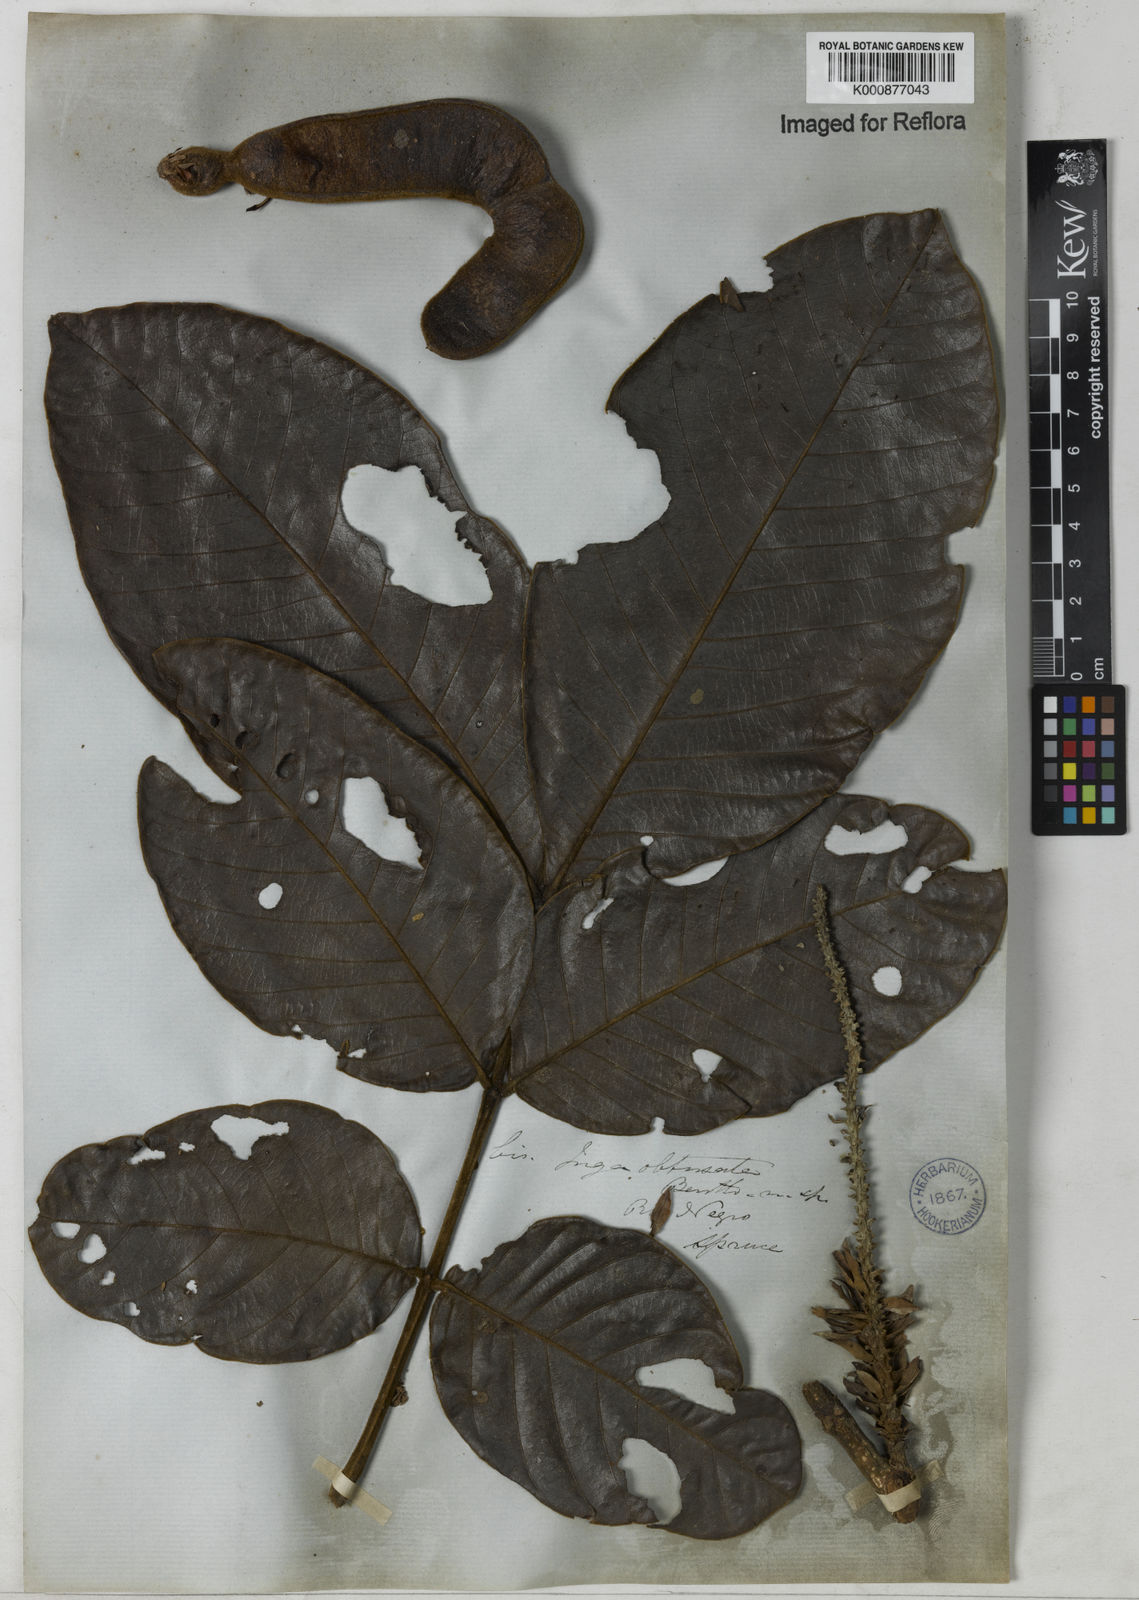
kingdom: Plantae
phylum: Tracheophyta
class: Magnoliopsida
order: Fabales
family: Fabaceae
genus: Inga
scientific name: Inga obtusata
